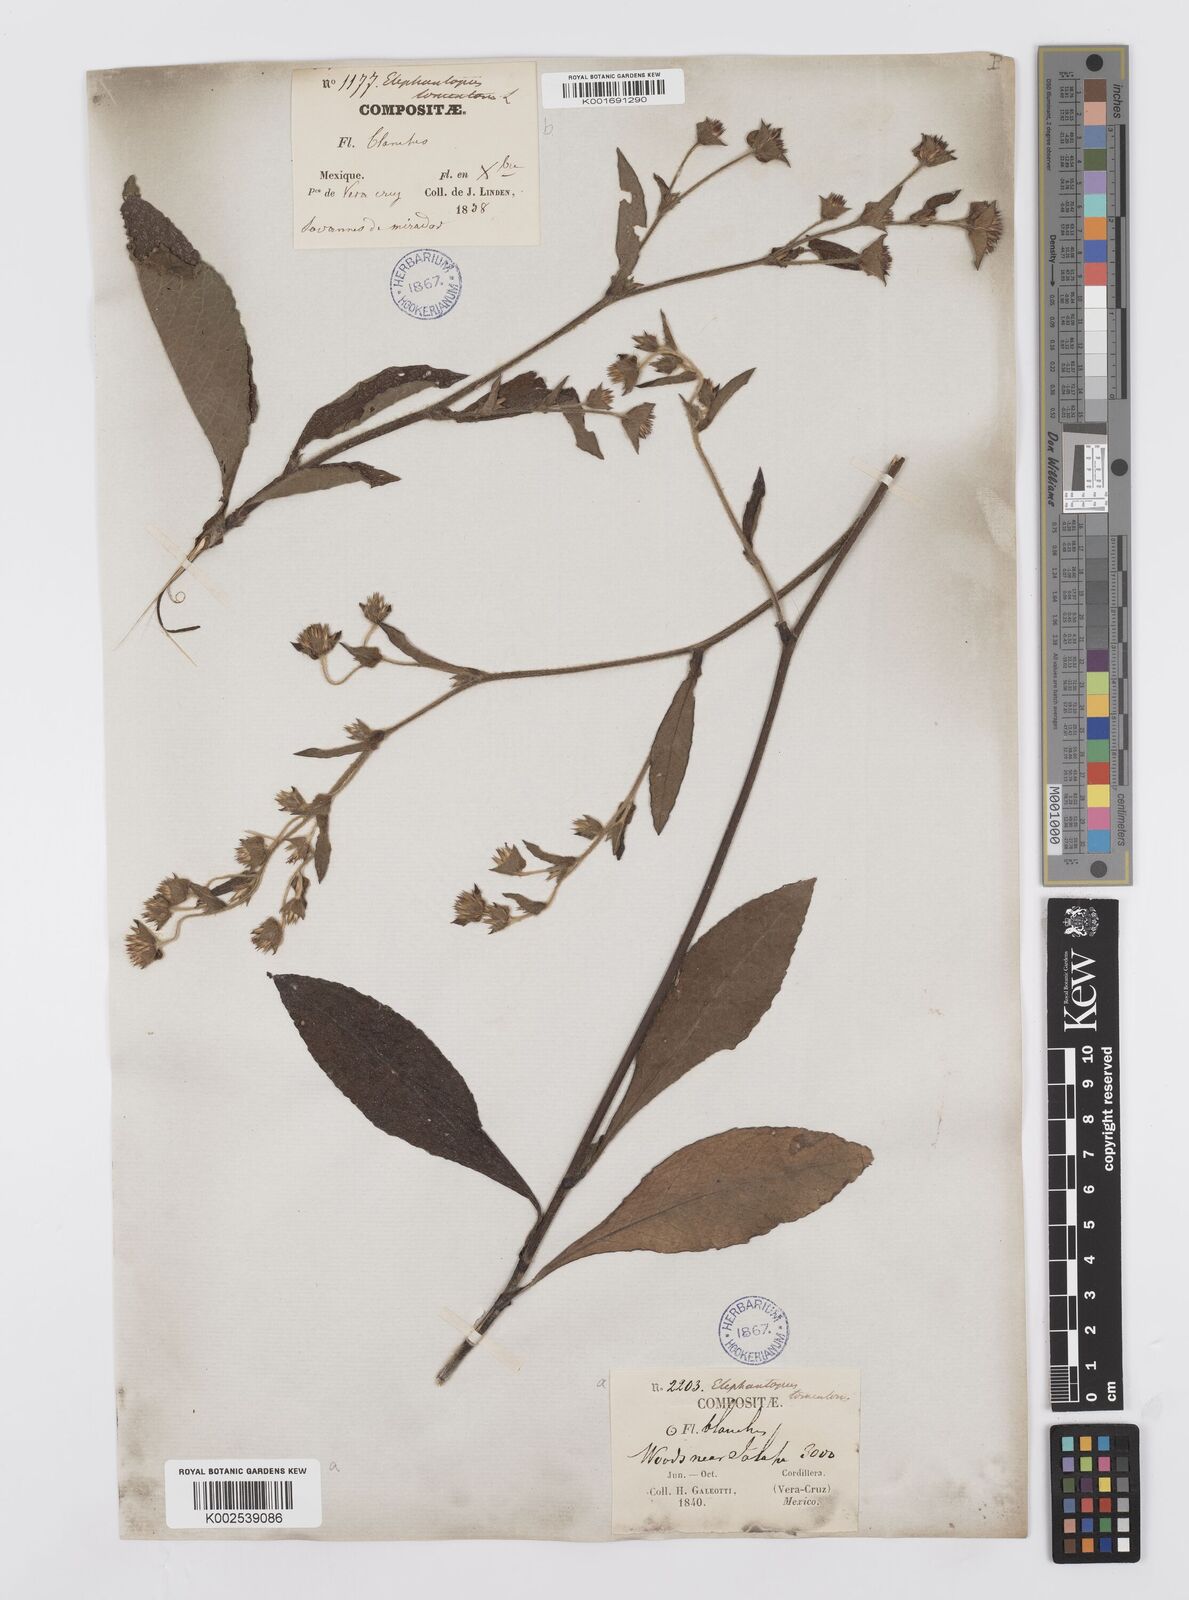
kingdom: Plantae
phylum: Tracheophyta
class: Magnoliopsida
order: Asterales
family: Asteraceae
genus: Elephantopus
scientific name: Elephantopus tomentosus
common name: Tobacco-weed
